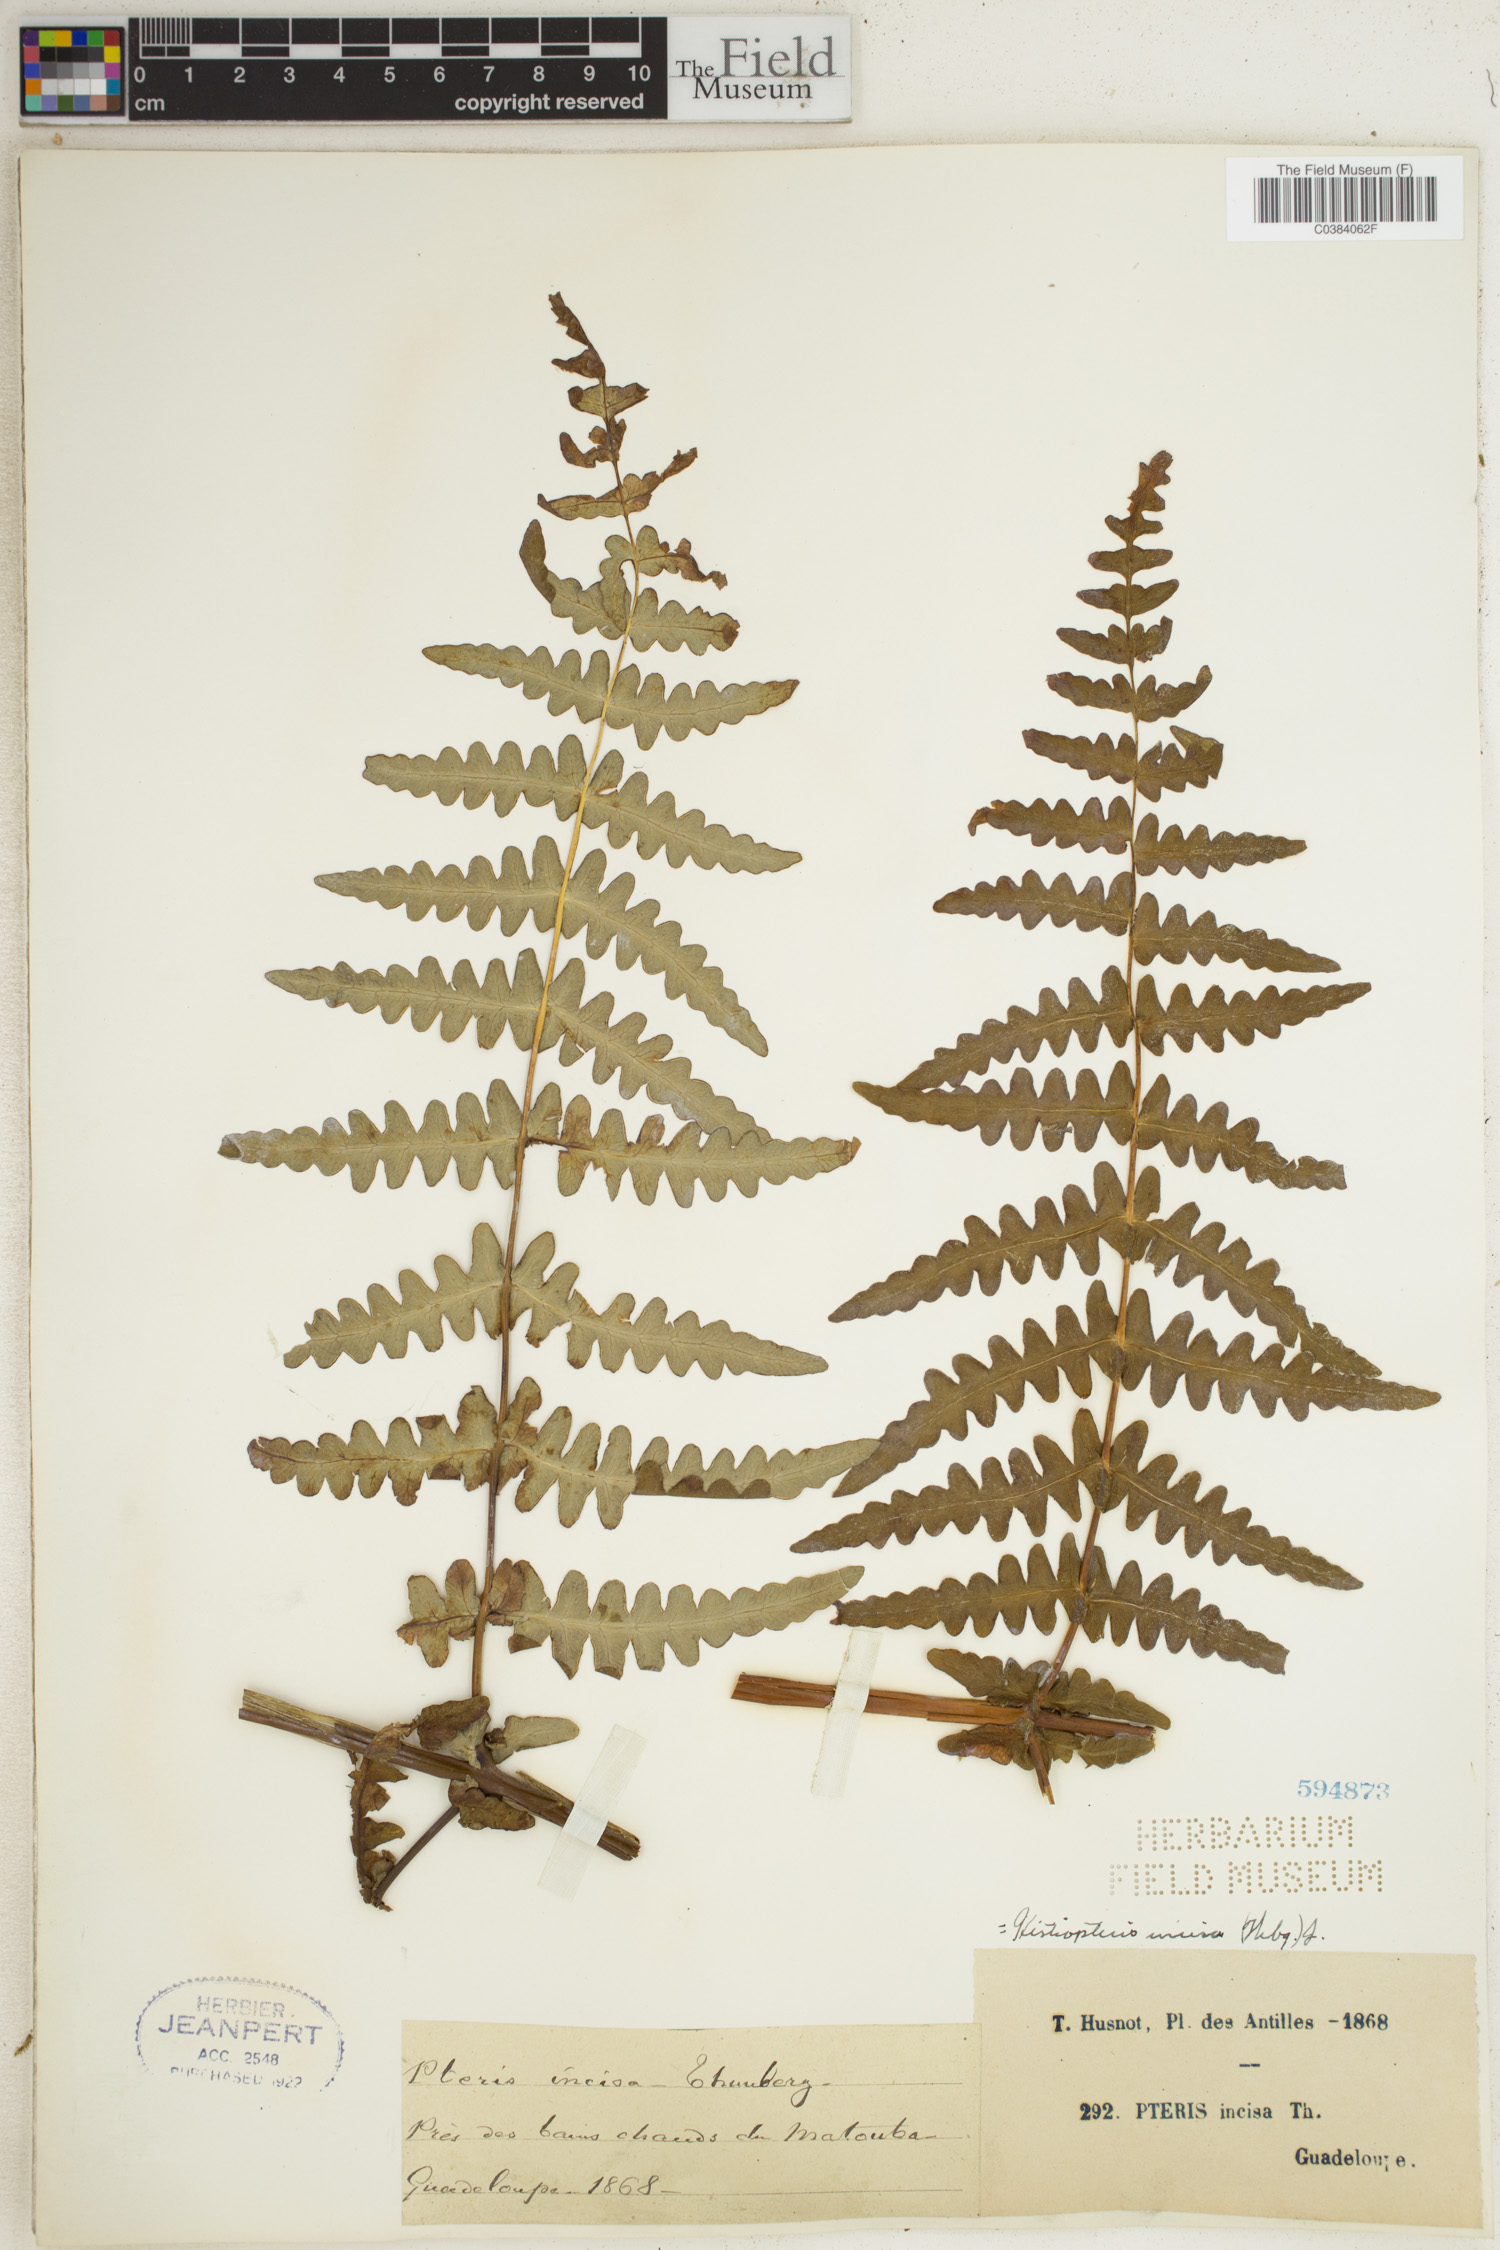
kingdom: Plantae
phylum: Tracheophyta
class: Polypodiopsida
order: Polypodiales
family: Dennstaedtiaceae
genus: Histiopteris
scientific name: Histiopteris incisa
